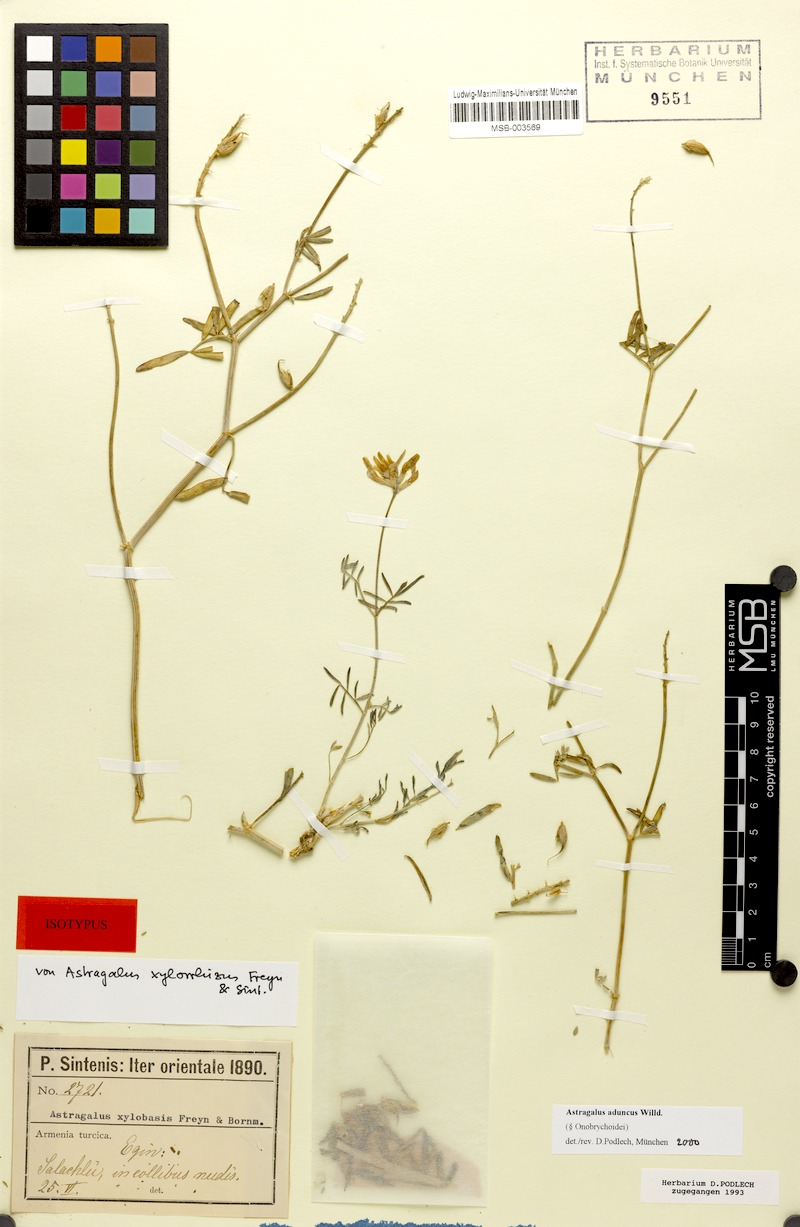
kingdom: Plantae
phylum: Tracheophyta
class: Magnoliopsida
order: Fabales
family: Fabaceae
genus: Astragalus
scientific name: Astragalus aduncus
